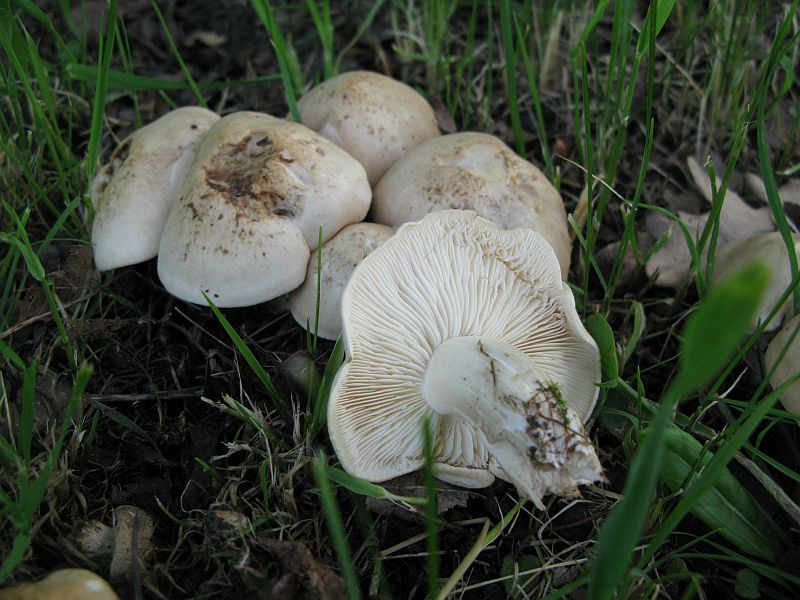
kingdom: Fungi
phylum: Basidiomycota
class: Agaricomycetes
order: Agaricales
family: Lyophyllaceae
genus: Calocybe
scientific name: Calocybe gambosa
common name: vårmusseron
